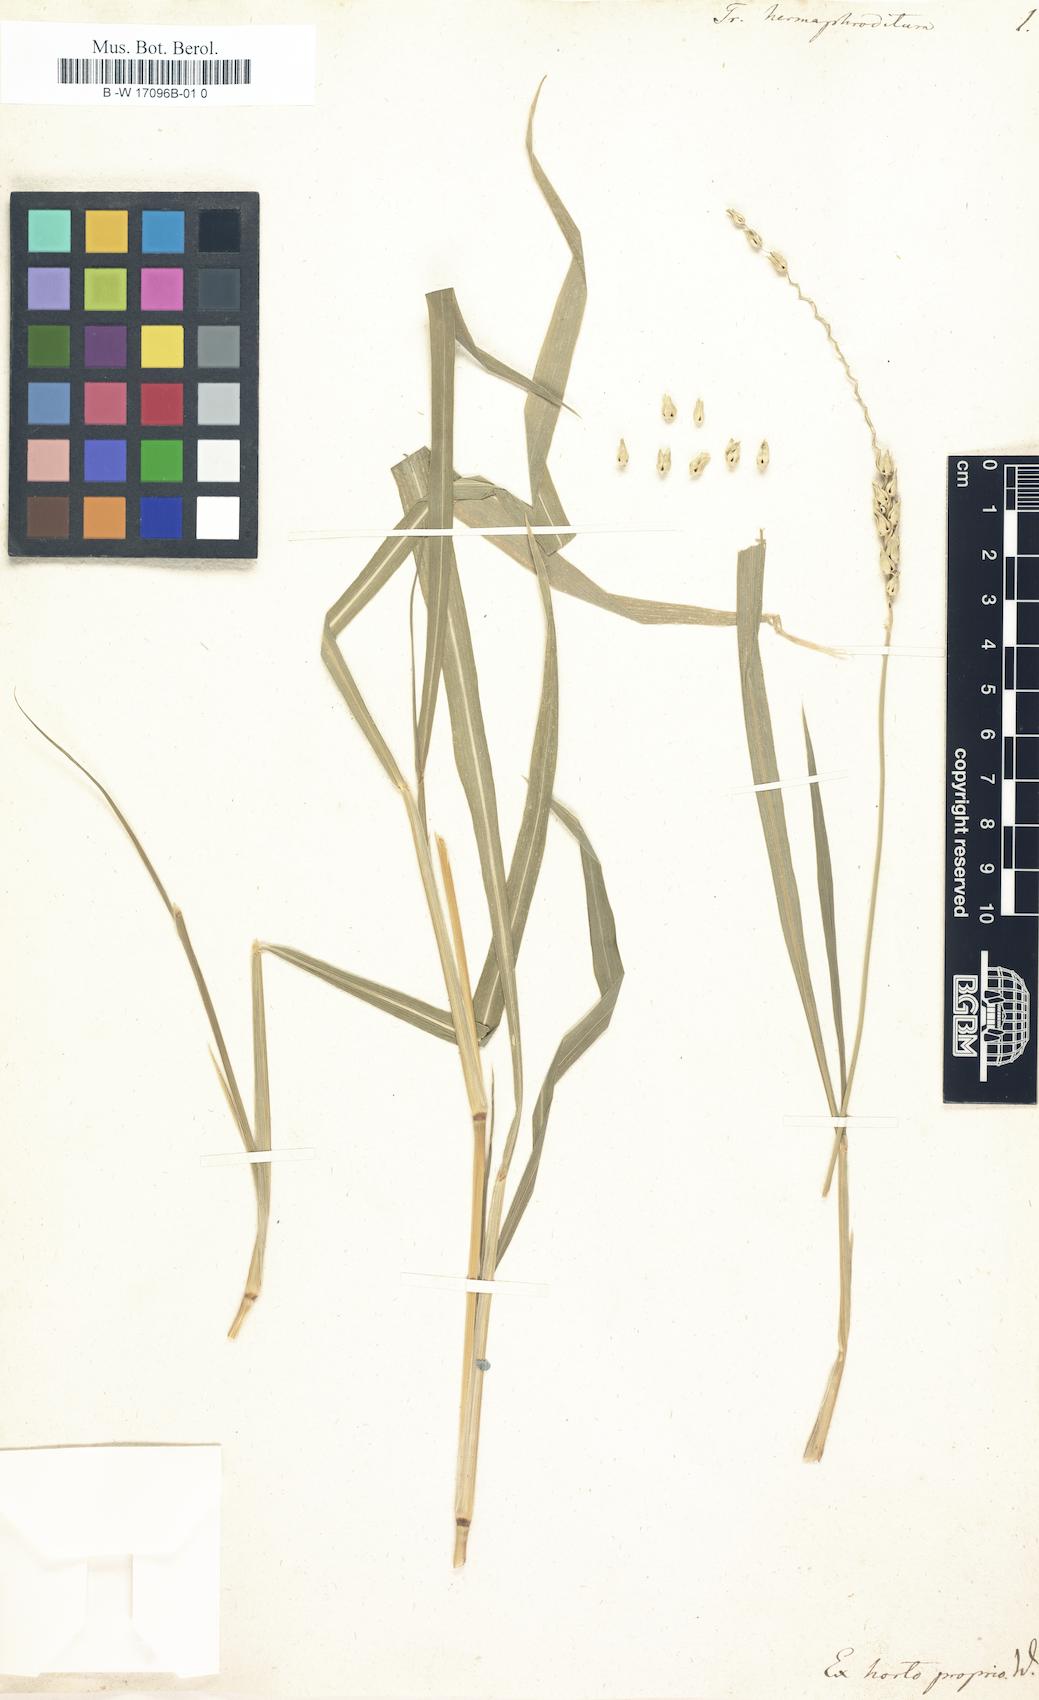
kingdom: Plantae
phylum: Tracheophyta
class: Liliopsida
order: Poales
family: Poaceae
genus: Anthephora
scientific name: Anthephora hermaphrodita
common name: Oldfield grass
